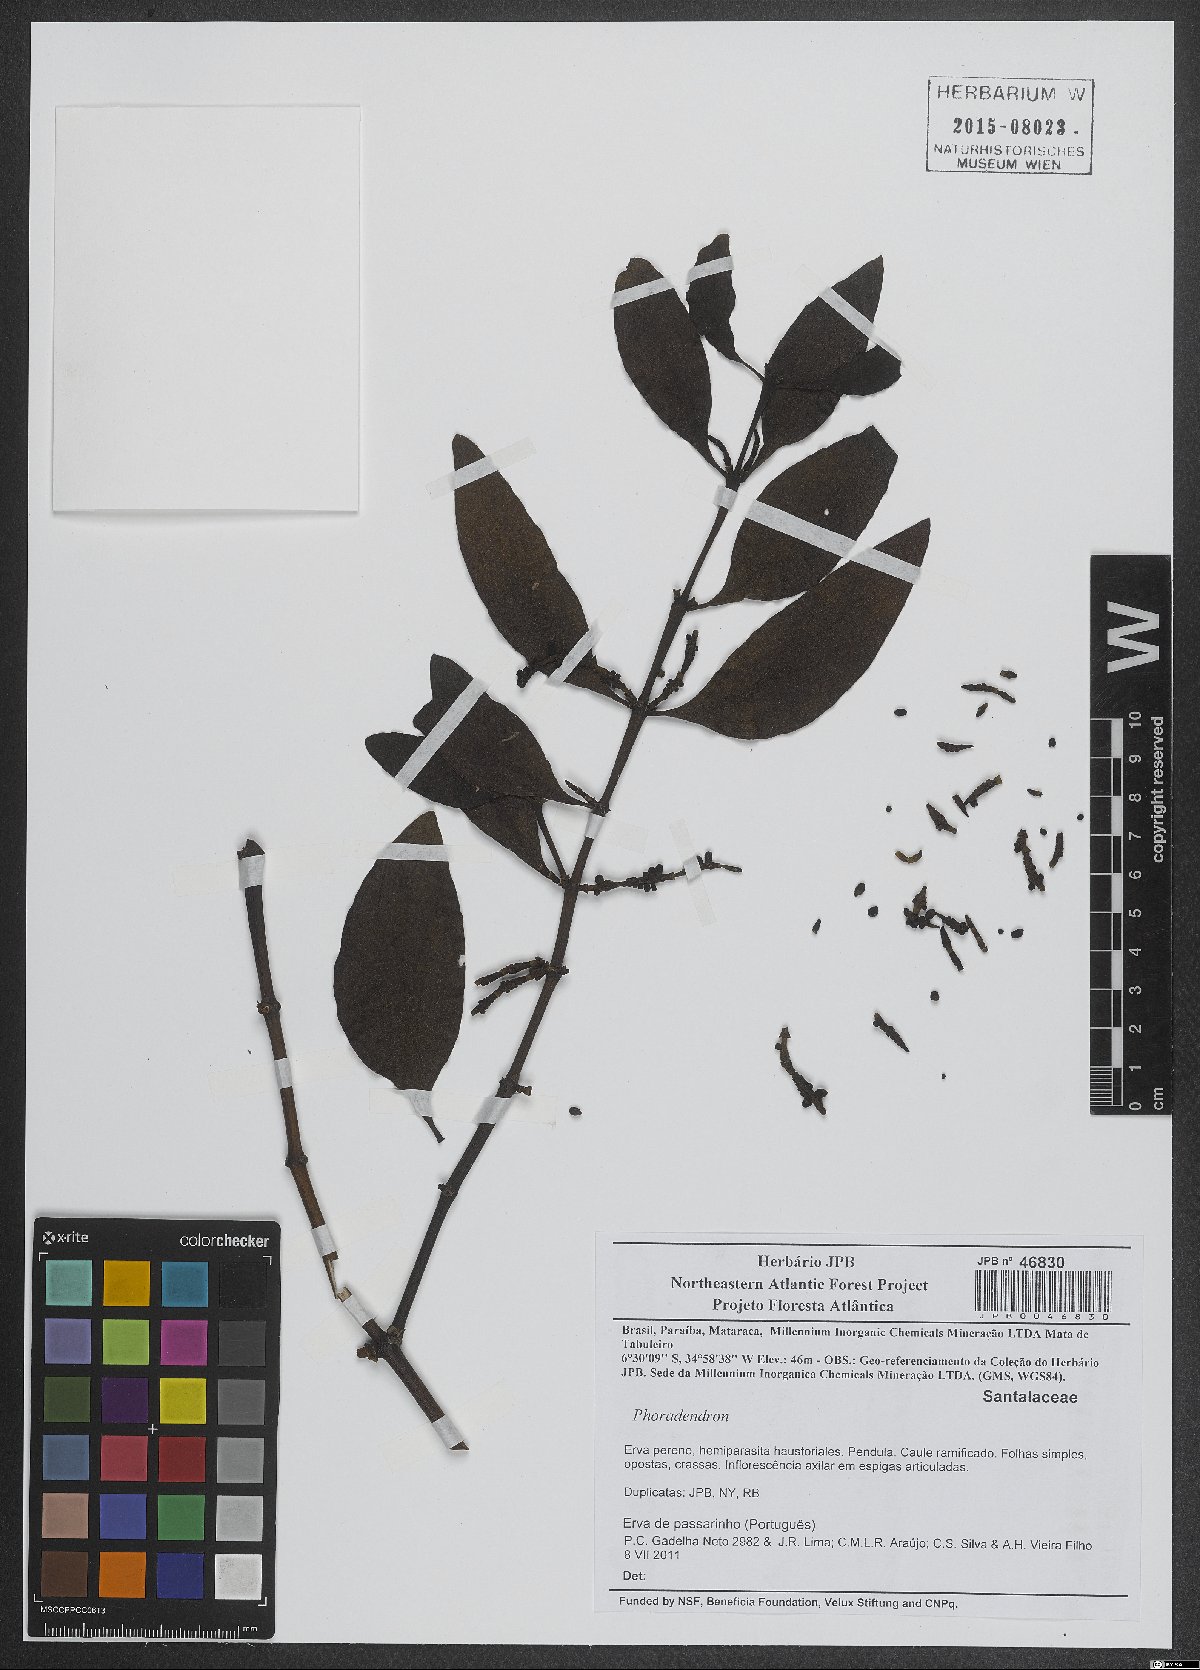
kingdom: Plantae
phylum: Tracheophyta
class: Magnoliopsida
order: Santalales
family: Viscaceae
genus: Phoradendron
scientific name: Phoradendron
